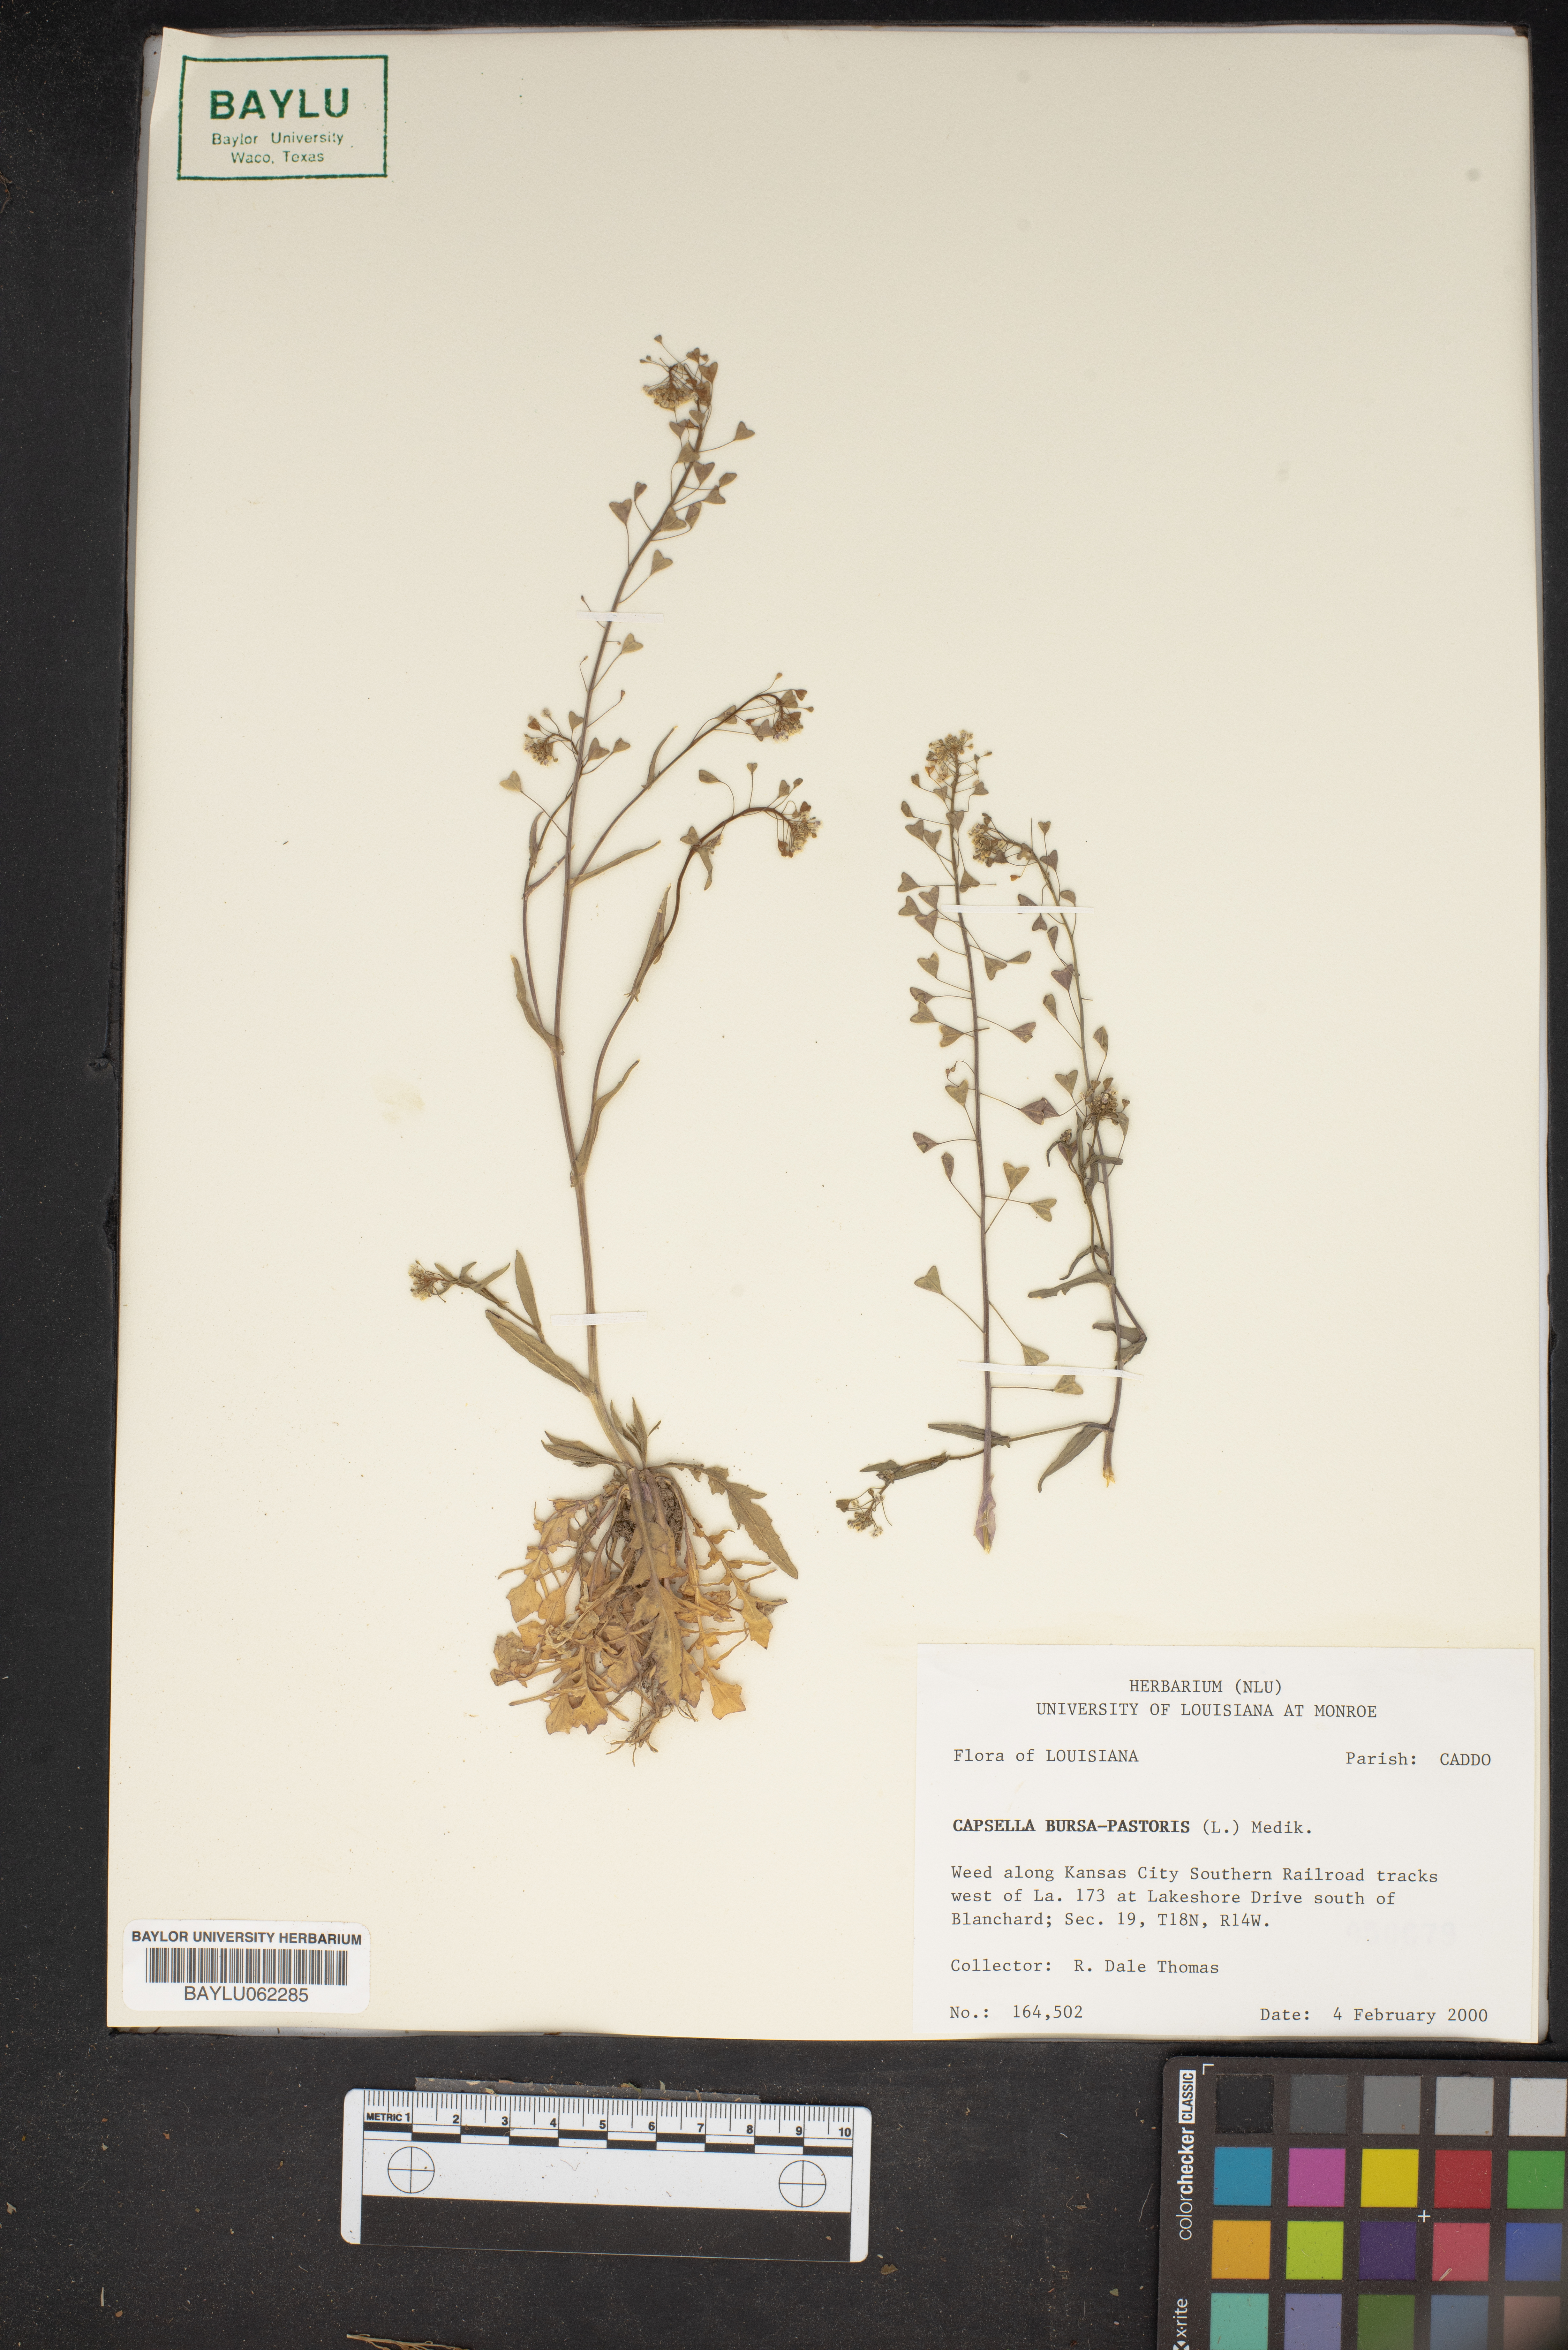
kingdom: Plantae
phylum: Tracheophyta
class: Magnoliopsida
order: Brassicales
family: Brassicaceae
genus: Capsella
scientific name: Capsella bursa-pastoris
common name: Shepherd's purse
